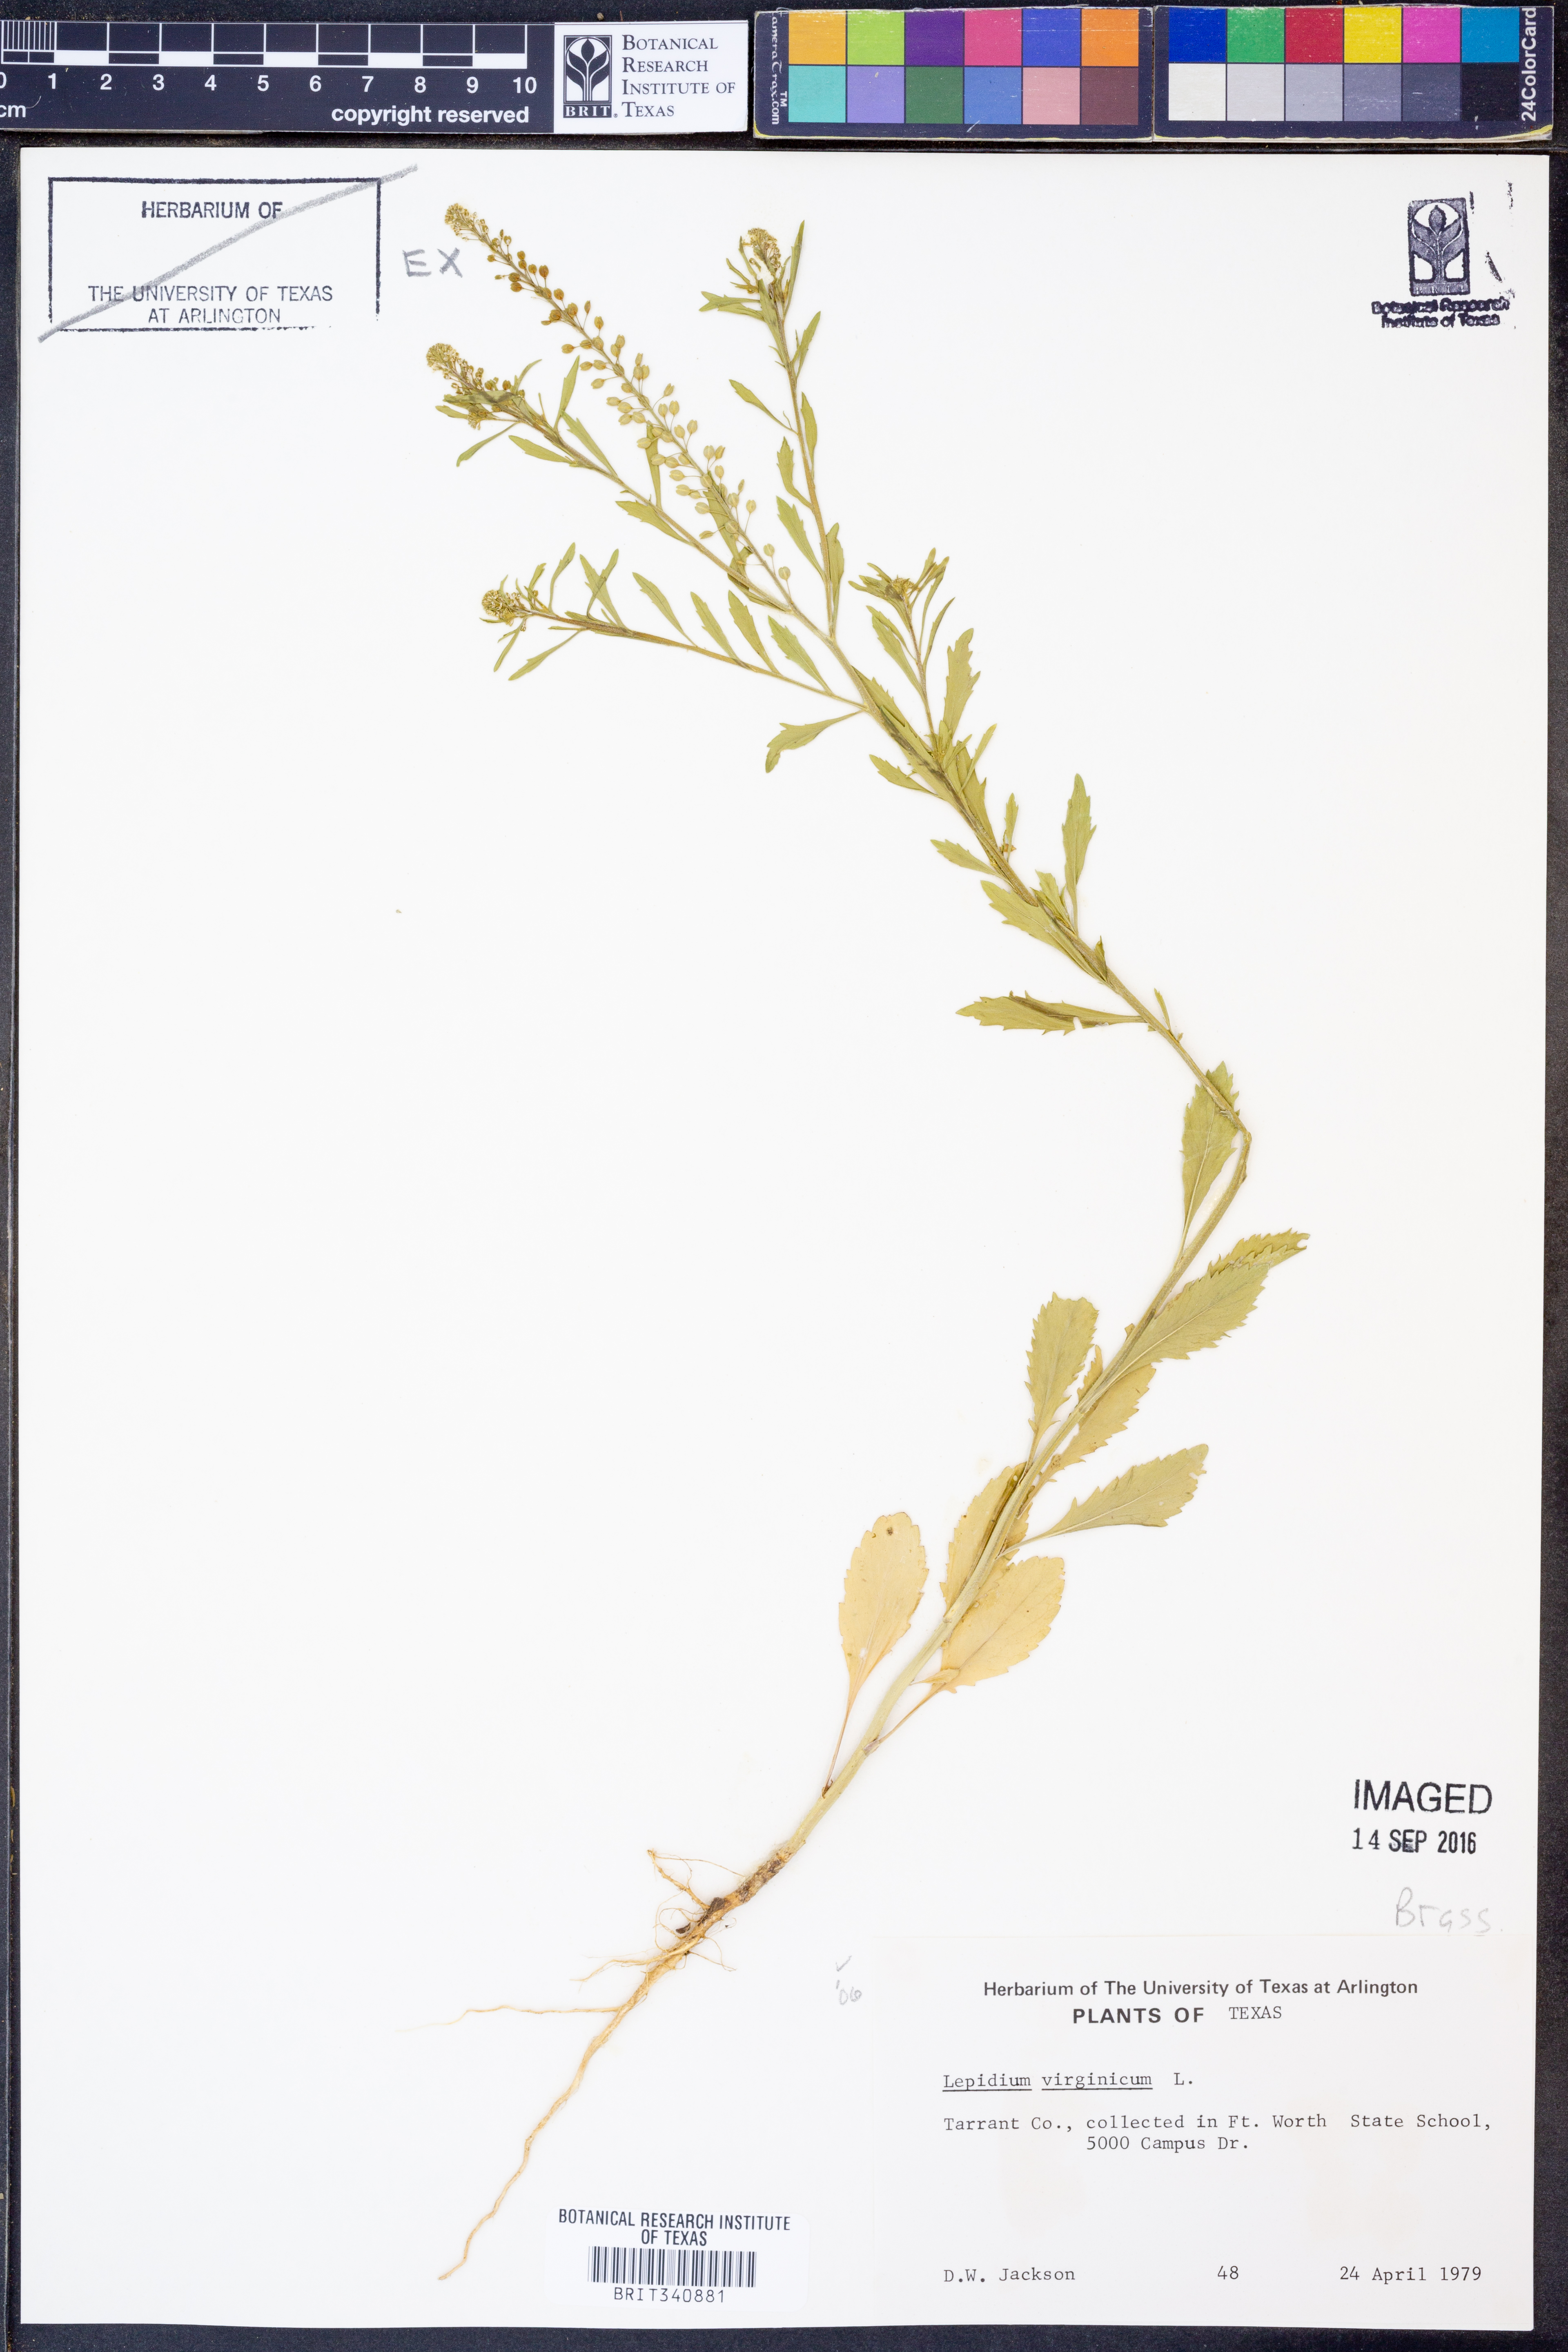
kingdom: Plantae
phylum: Tracheophyta
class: Magnoliopsida
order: Brassicales
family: Brassicaceae
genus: Lepidium
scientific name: Lepidium virginicum
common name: Least pepperwort
